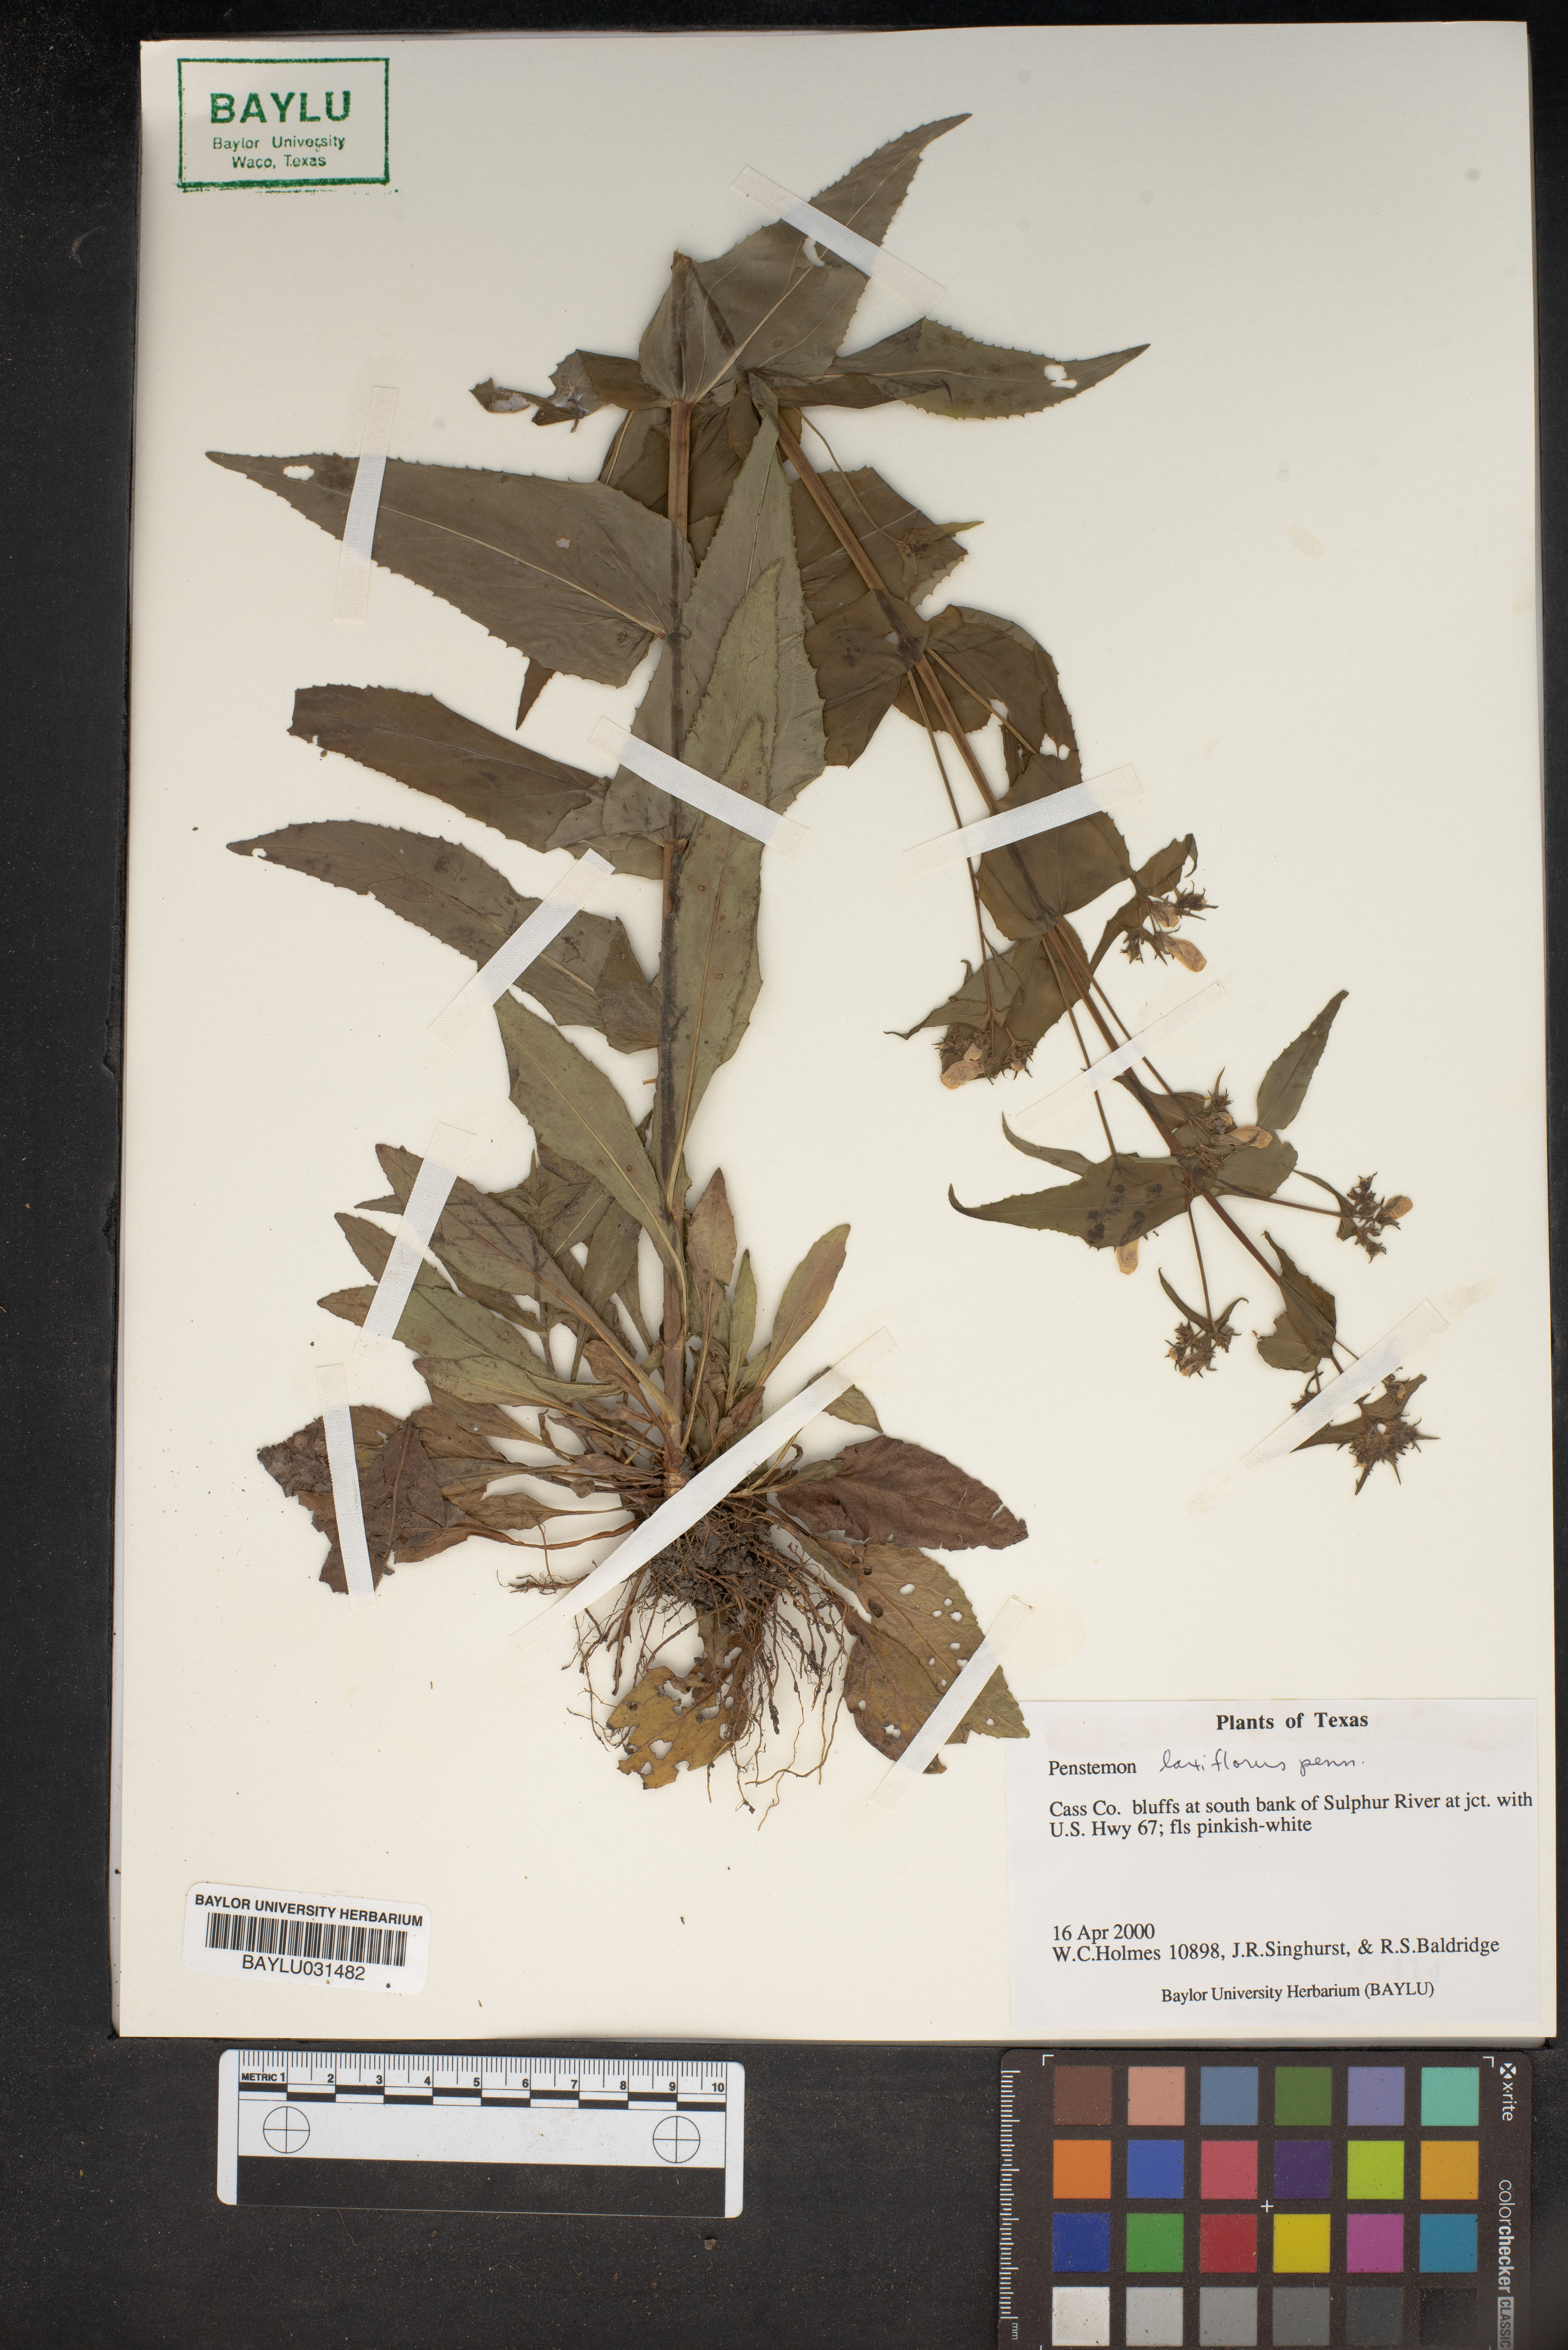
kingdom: Plantae
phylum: Tracheophyta
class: Magnoliopsida
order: Lamiales
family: Plantaginaceae
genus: Penstemon
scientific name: Penstemon laxiflorus
